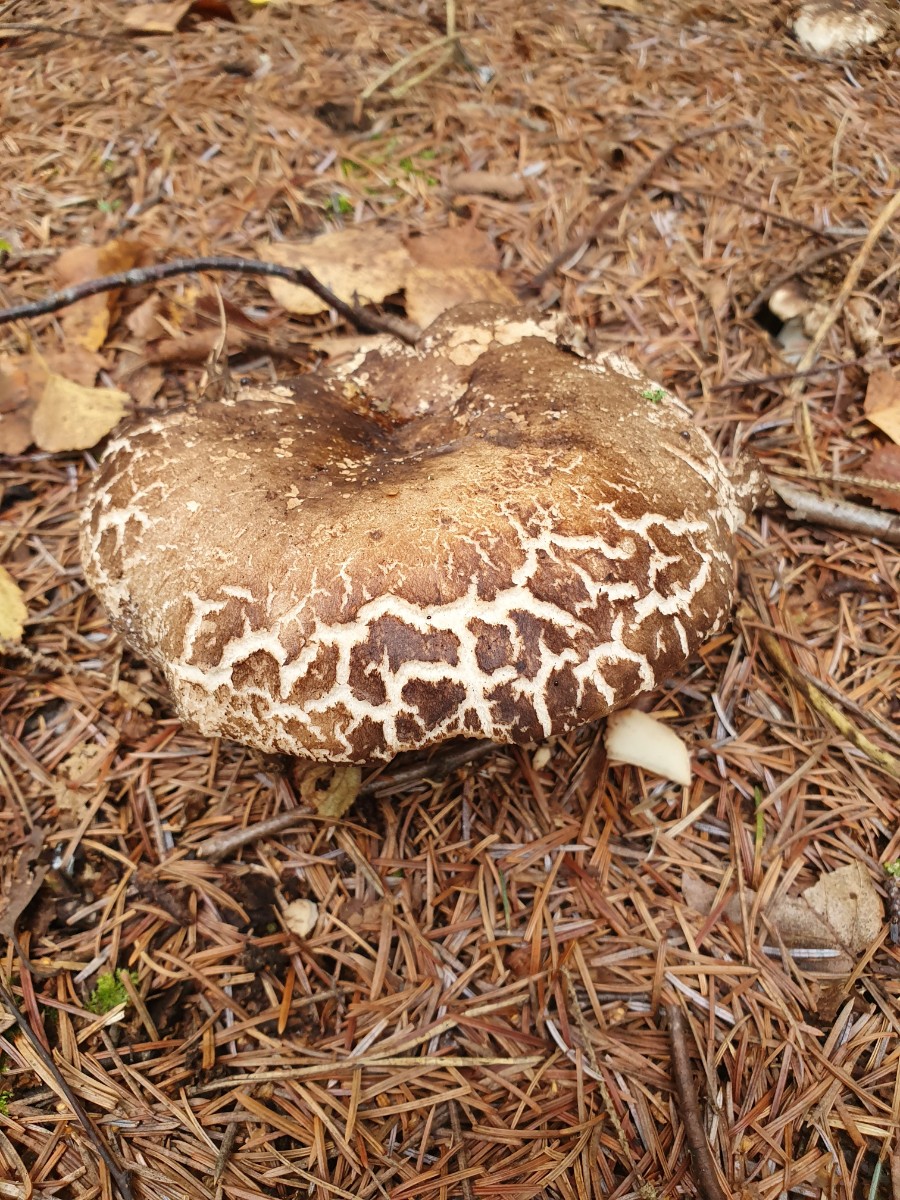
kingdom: Fungi
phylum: Basidiomycota
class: Agaricomycetes
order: Russulales
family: Russulaceae
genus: Russula
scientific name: Russula adusta
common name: sværtende skørhat
